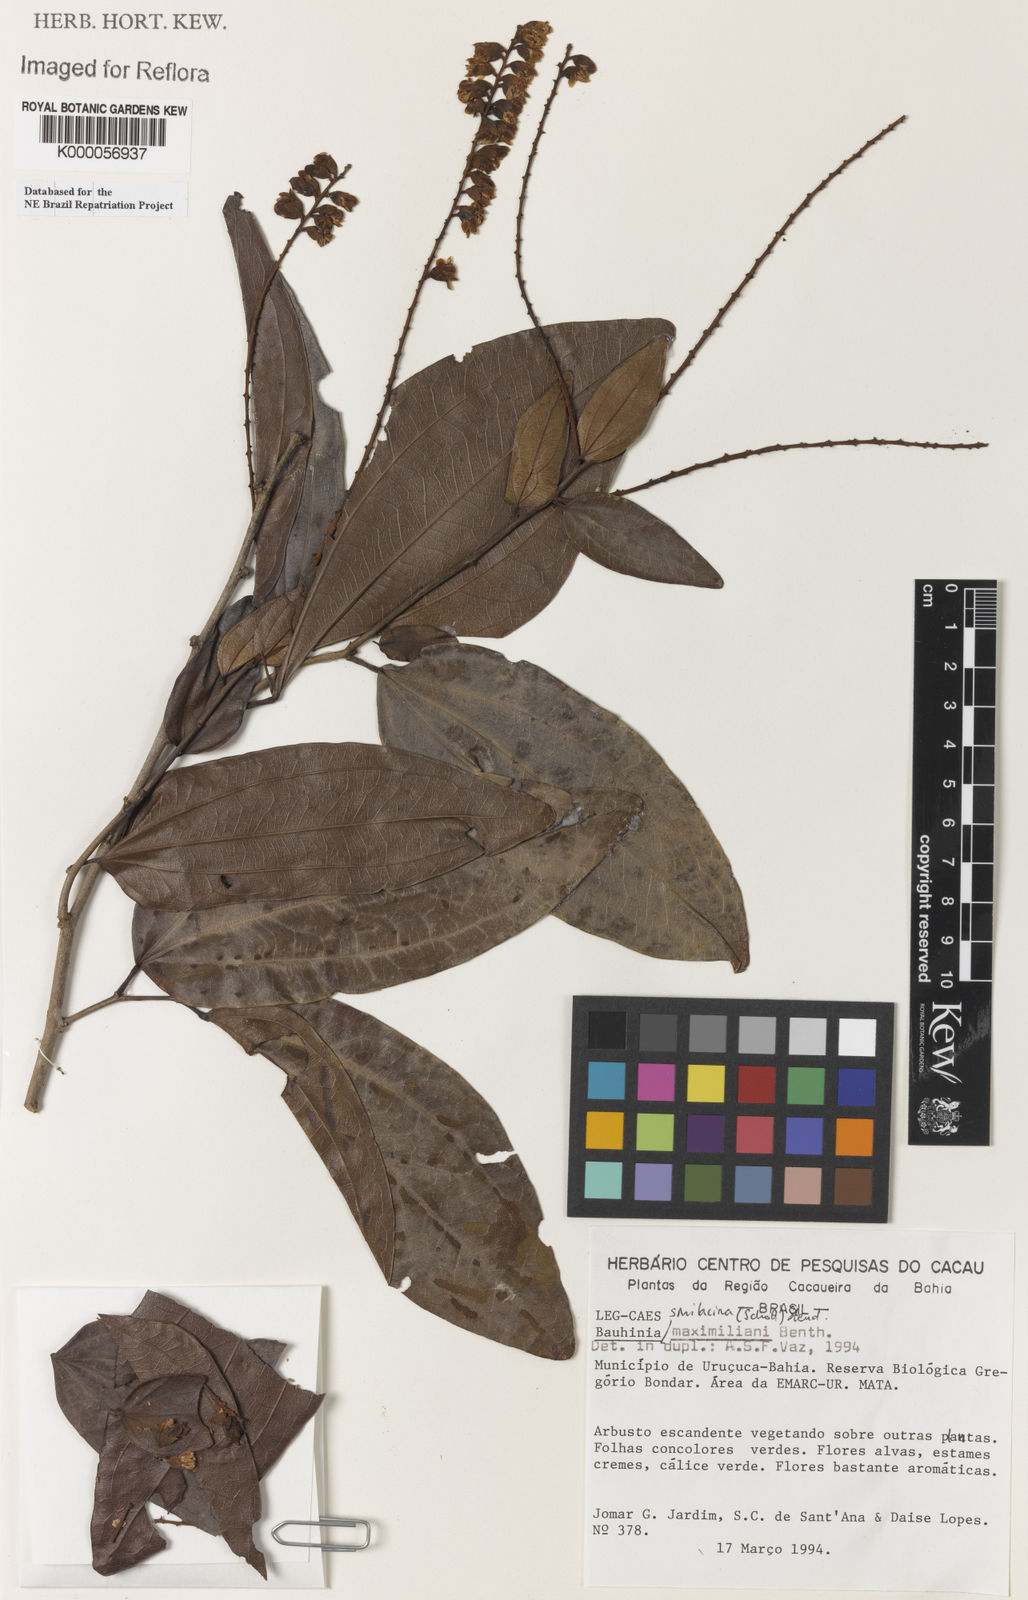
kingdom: Plantae
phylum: Tracheophyta
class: Magnoliopsida
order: Fabales
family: Fabaceae
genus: Schnella
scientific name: Schnella maximiliani
